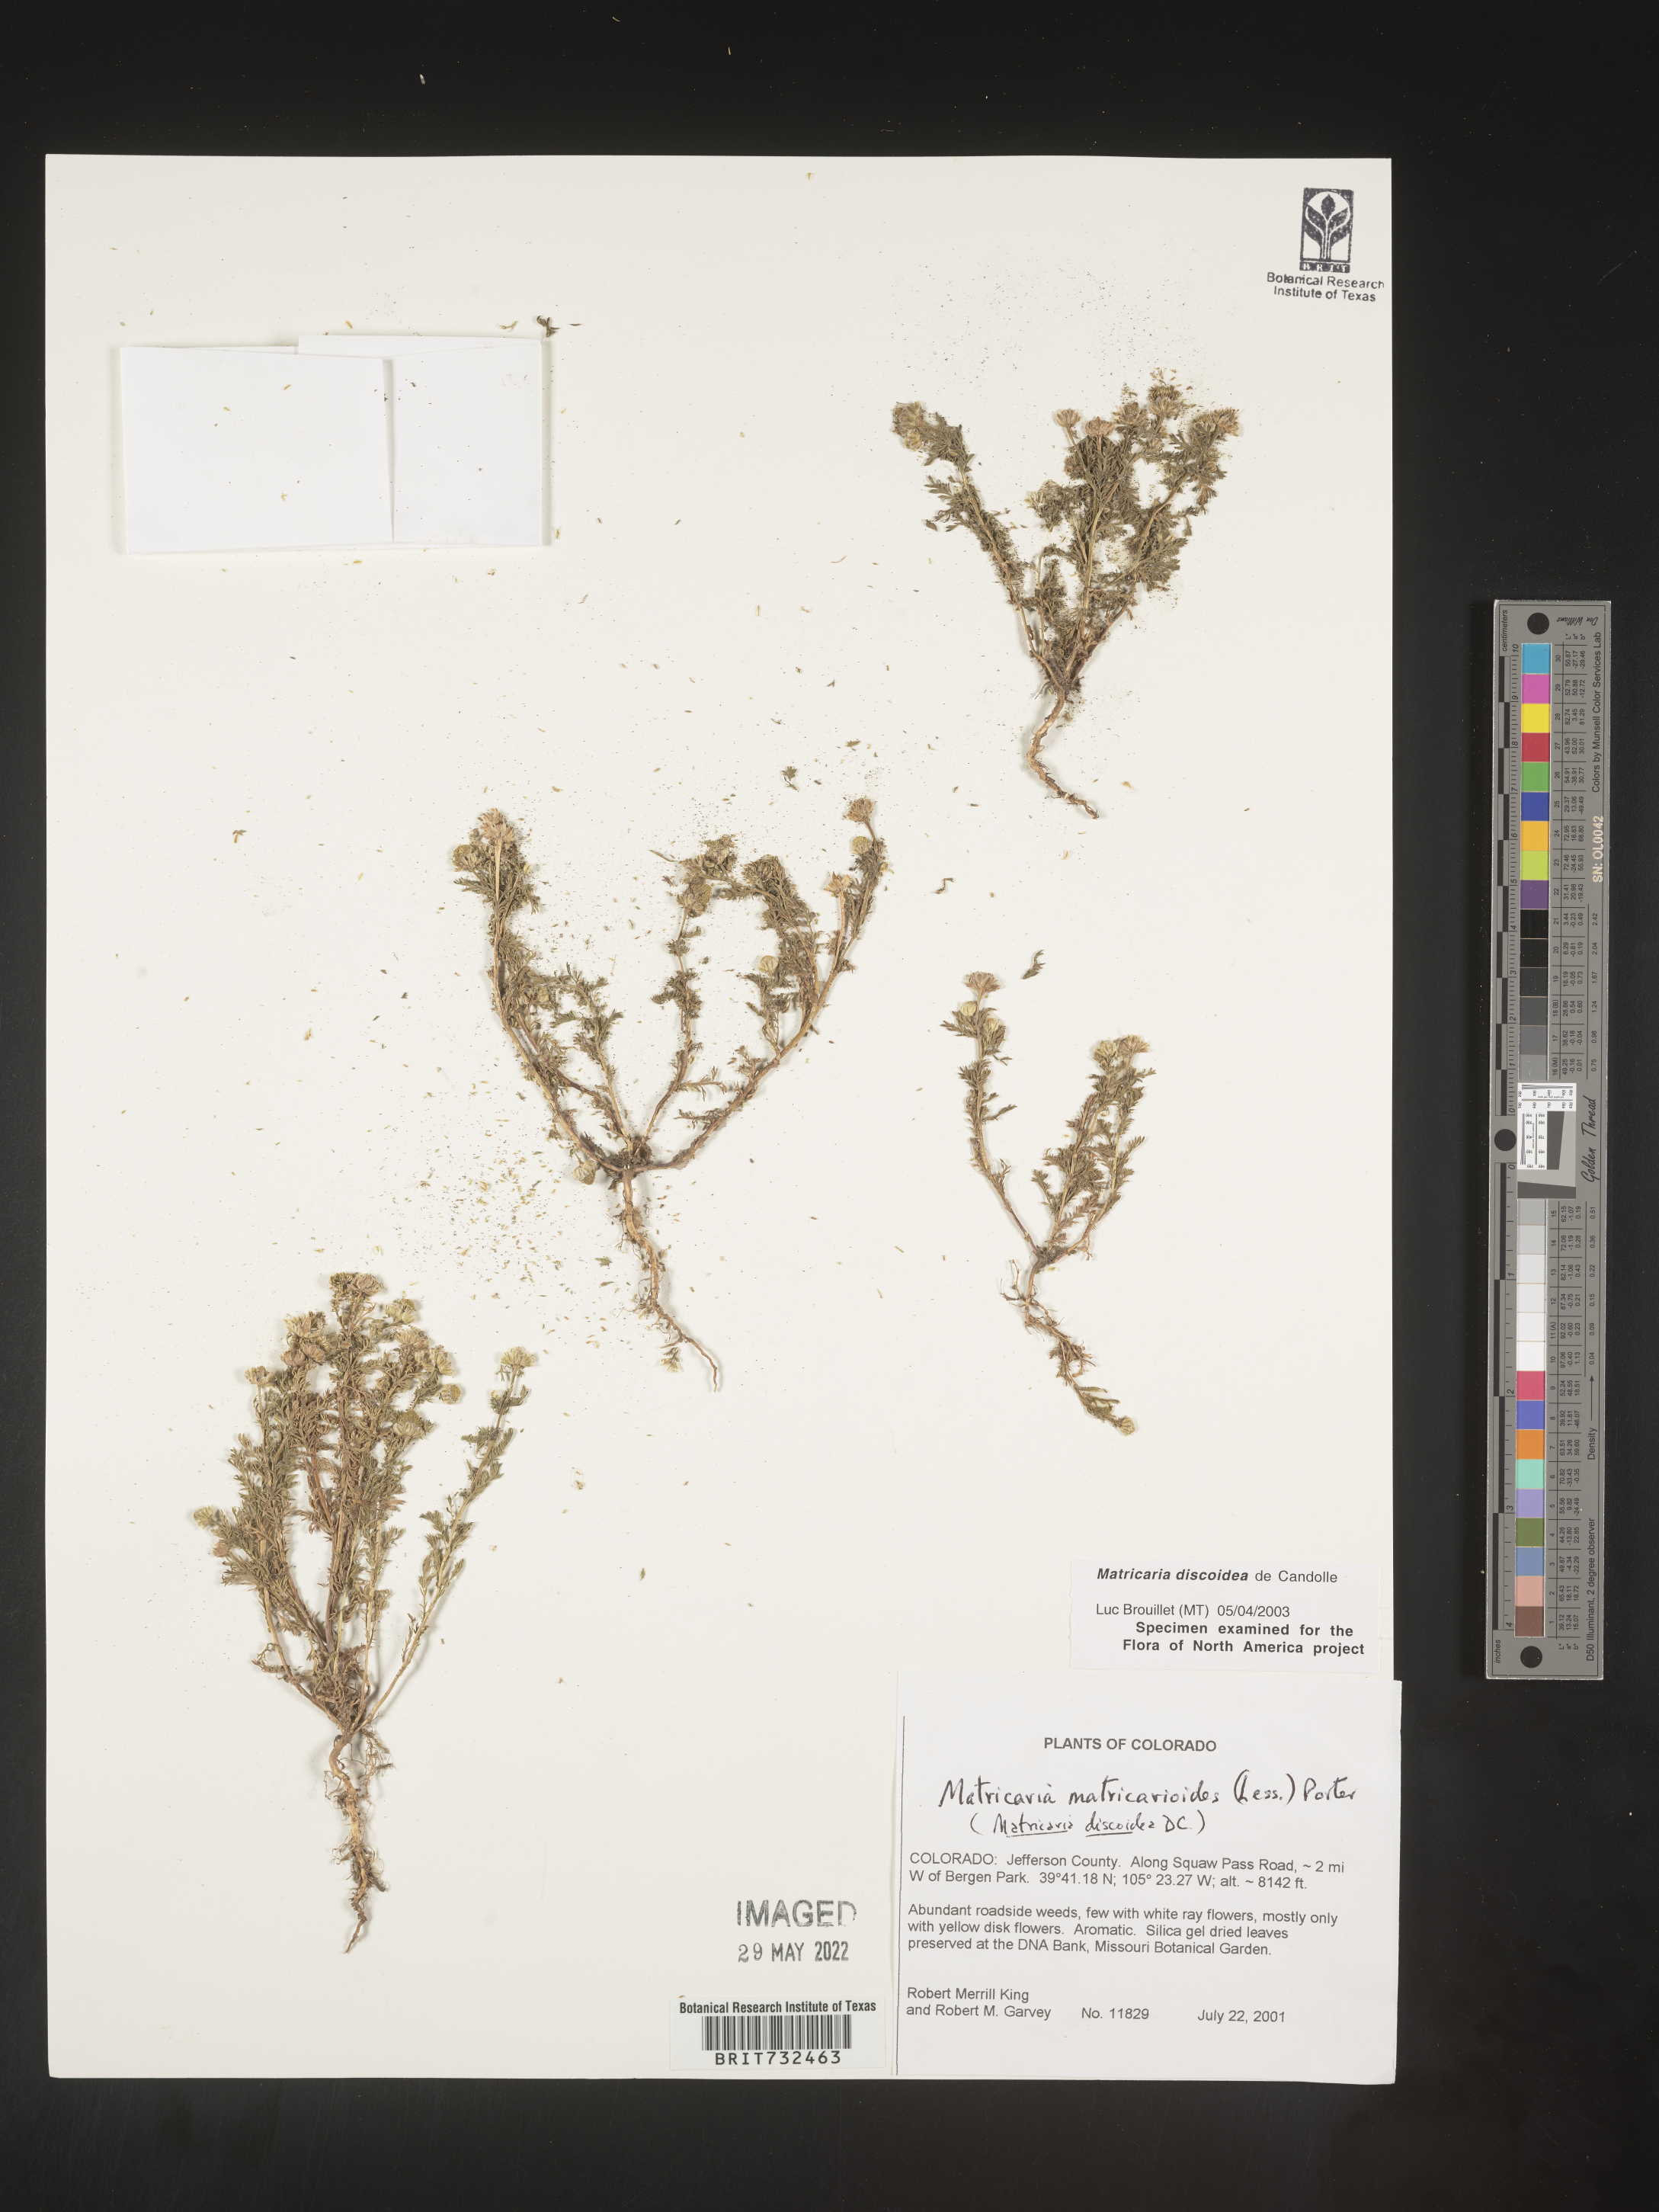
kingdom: Plantae
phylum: Tracheophyta
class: Magnoliopsida
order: Asterales
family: Asteraceae
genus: Matricaria
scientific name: Matricaria discoidea
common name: Disc mayweed
